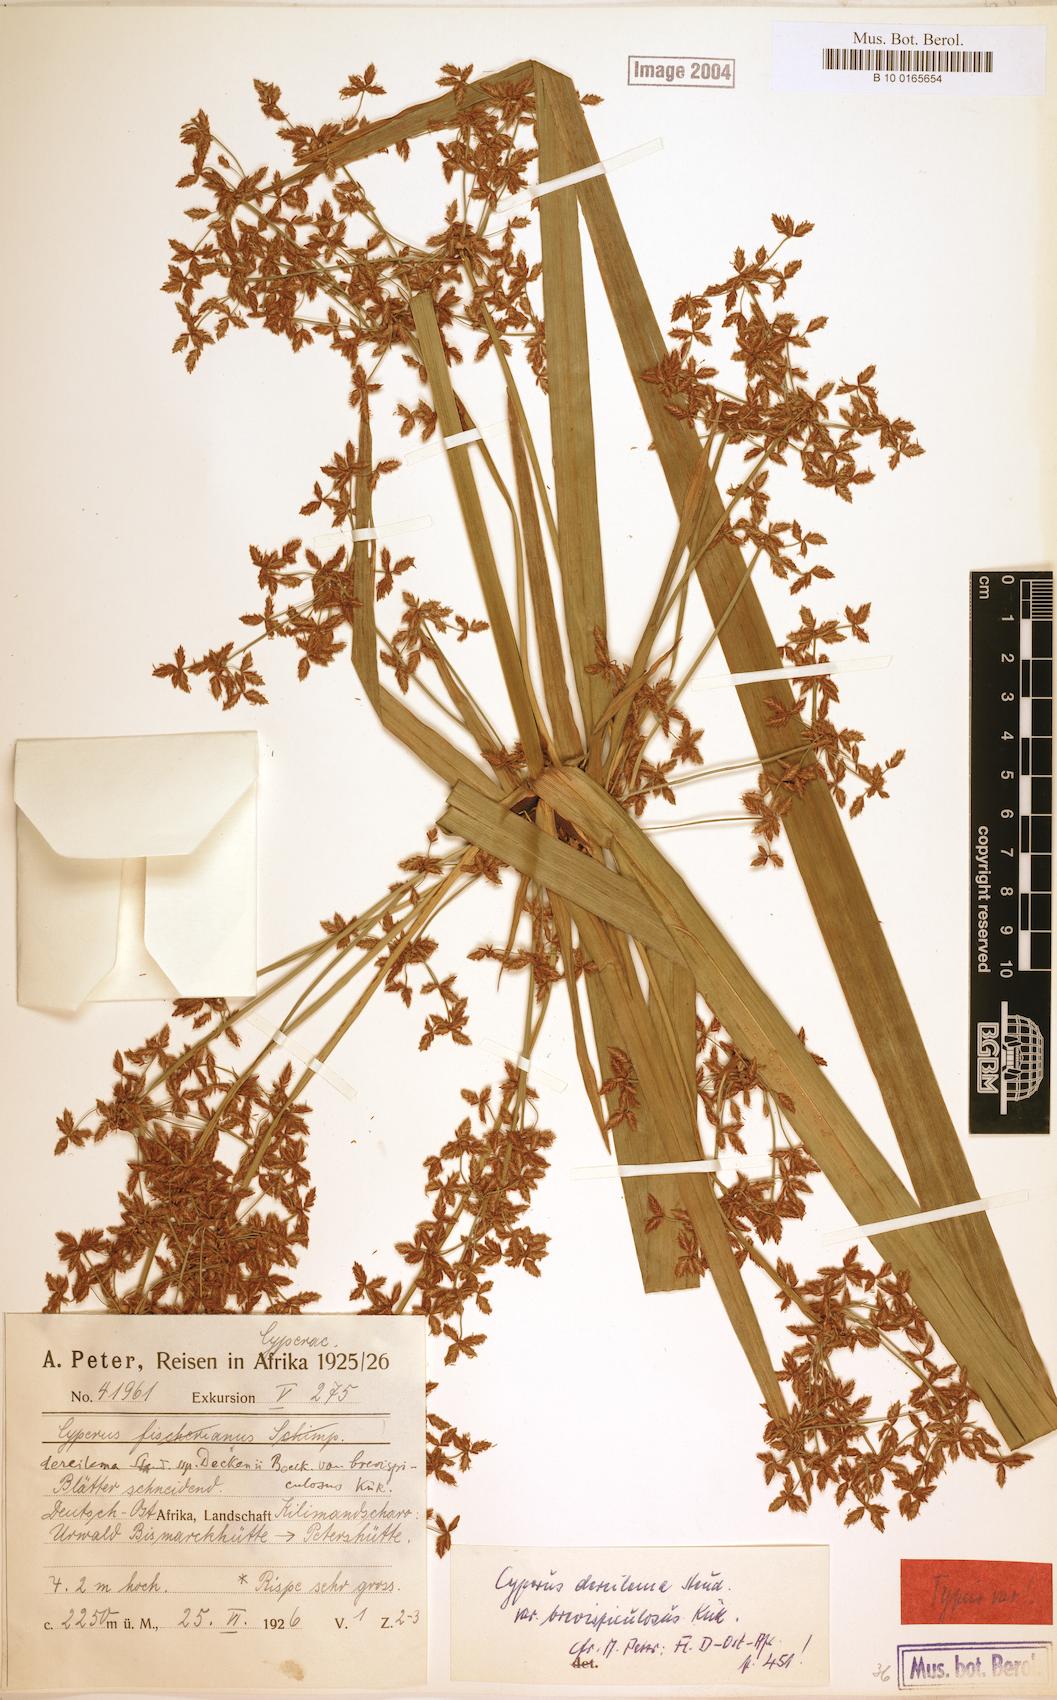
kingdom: Plantae
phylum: Tracheophyta
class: Liliopsida
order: Poales
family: Cyperaceae
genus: Cyperus
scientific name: Cyperus derreilema
